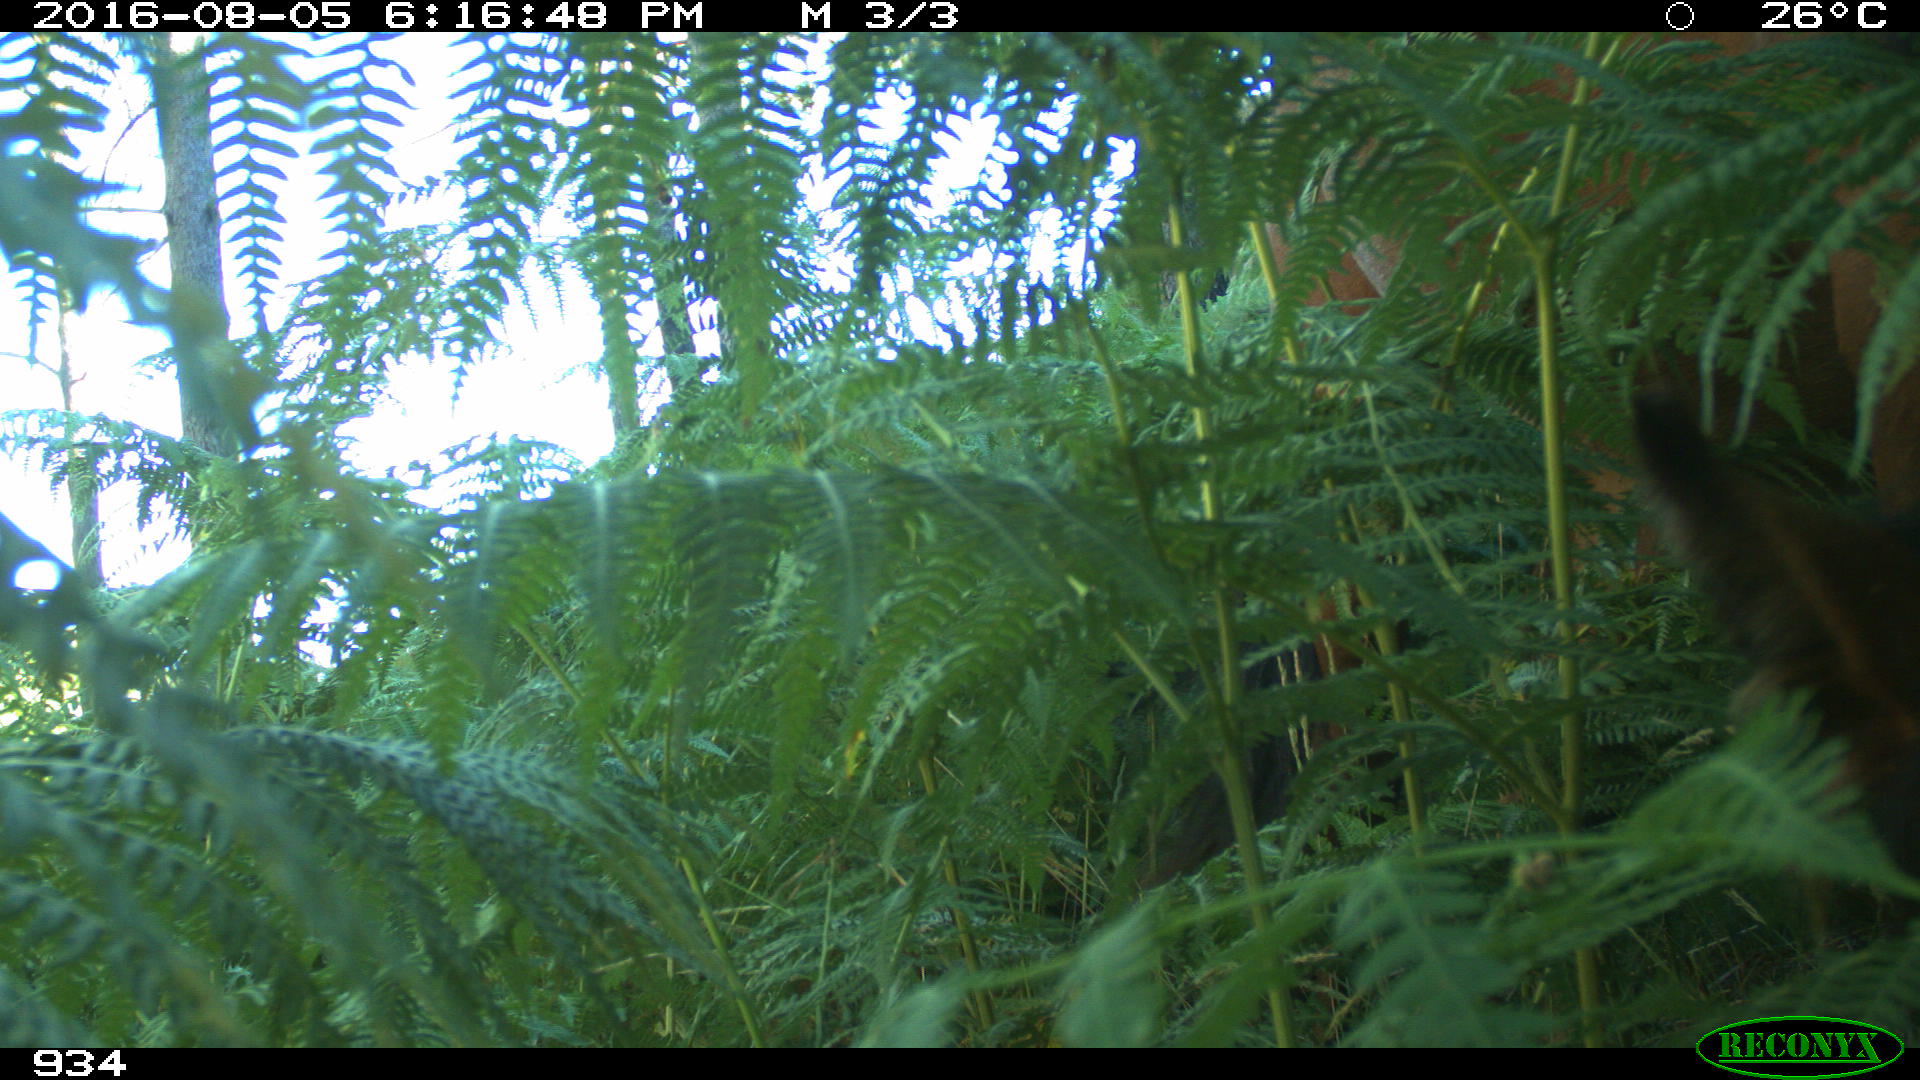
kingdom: Animalia
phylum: Chordata
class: Mammalia
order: Perissodactyla
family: Equidae
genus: Equus
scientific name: Equus caballus
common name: Horse
